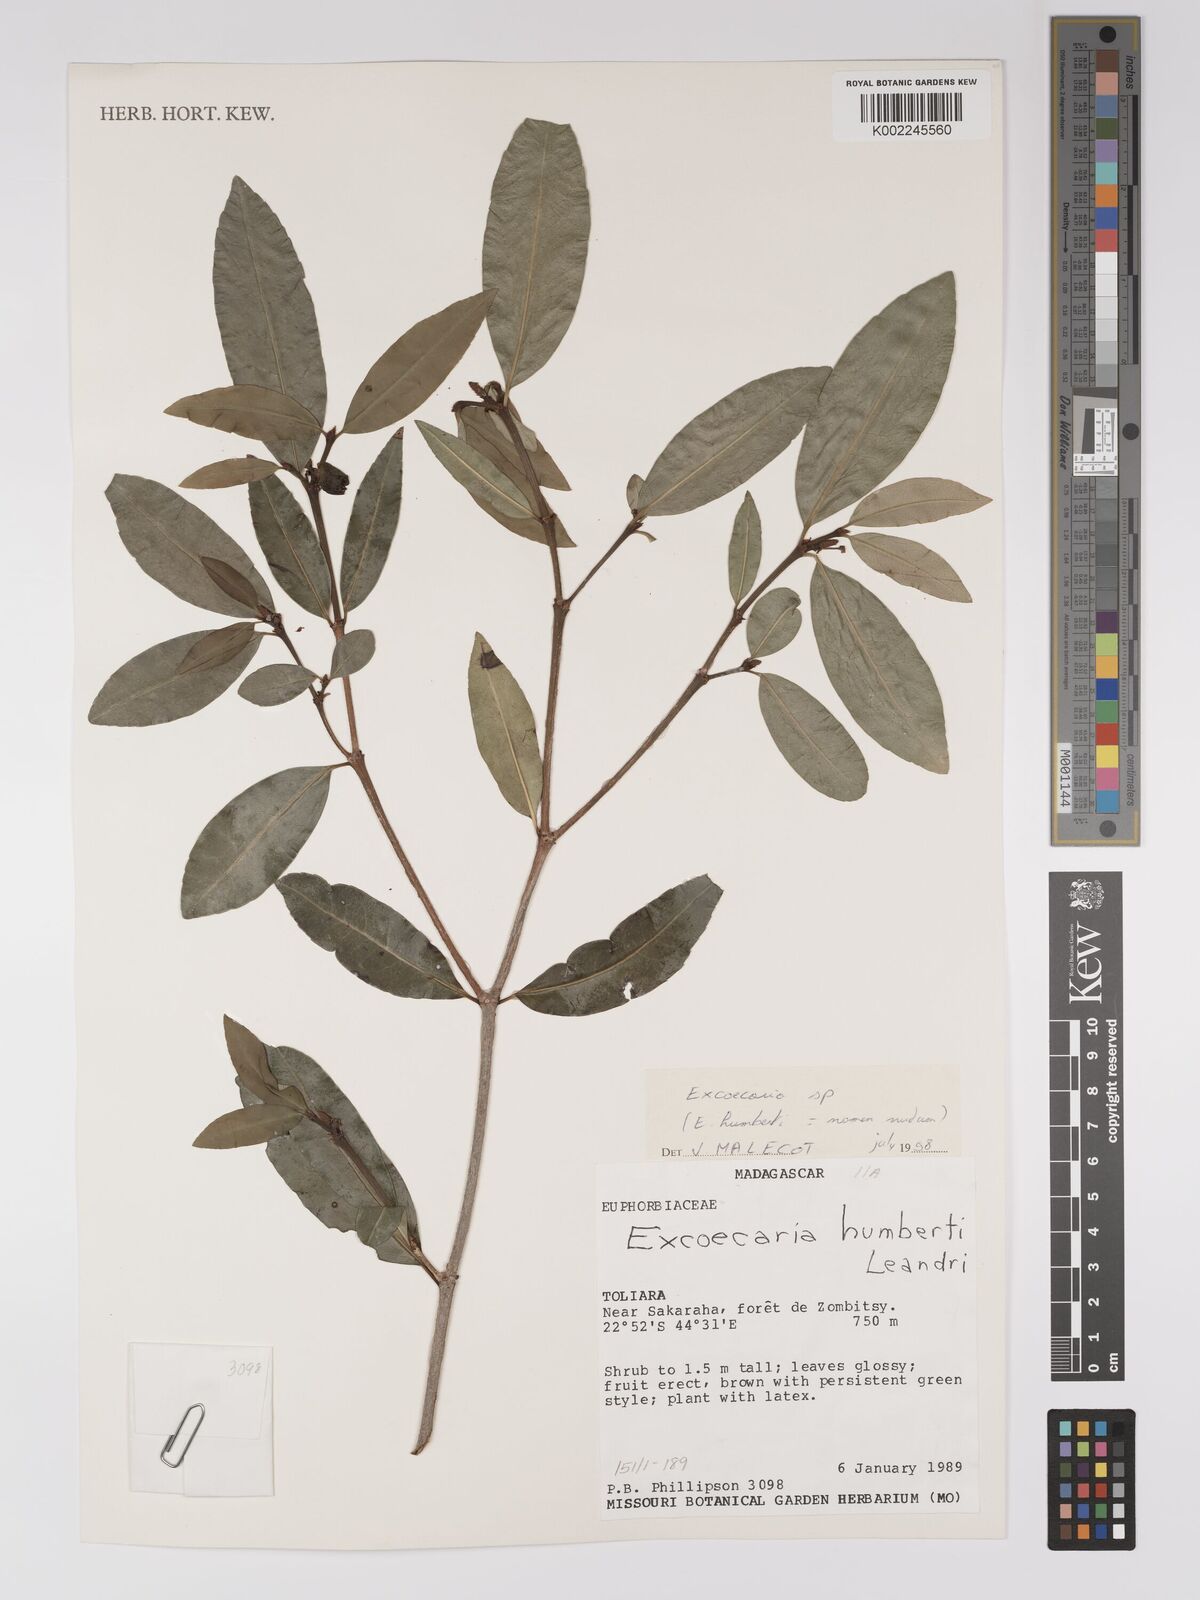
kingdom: Plantae
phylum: Tracheophyta
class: Magnoliopsida
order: Malpighiales
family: Euphorbiaceae
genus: Excoecaria
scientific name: Excoecaria
